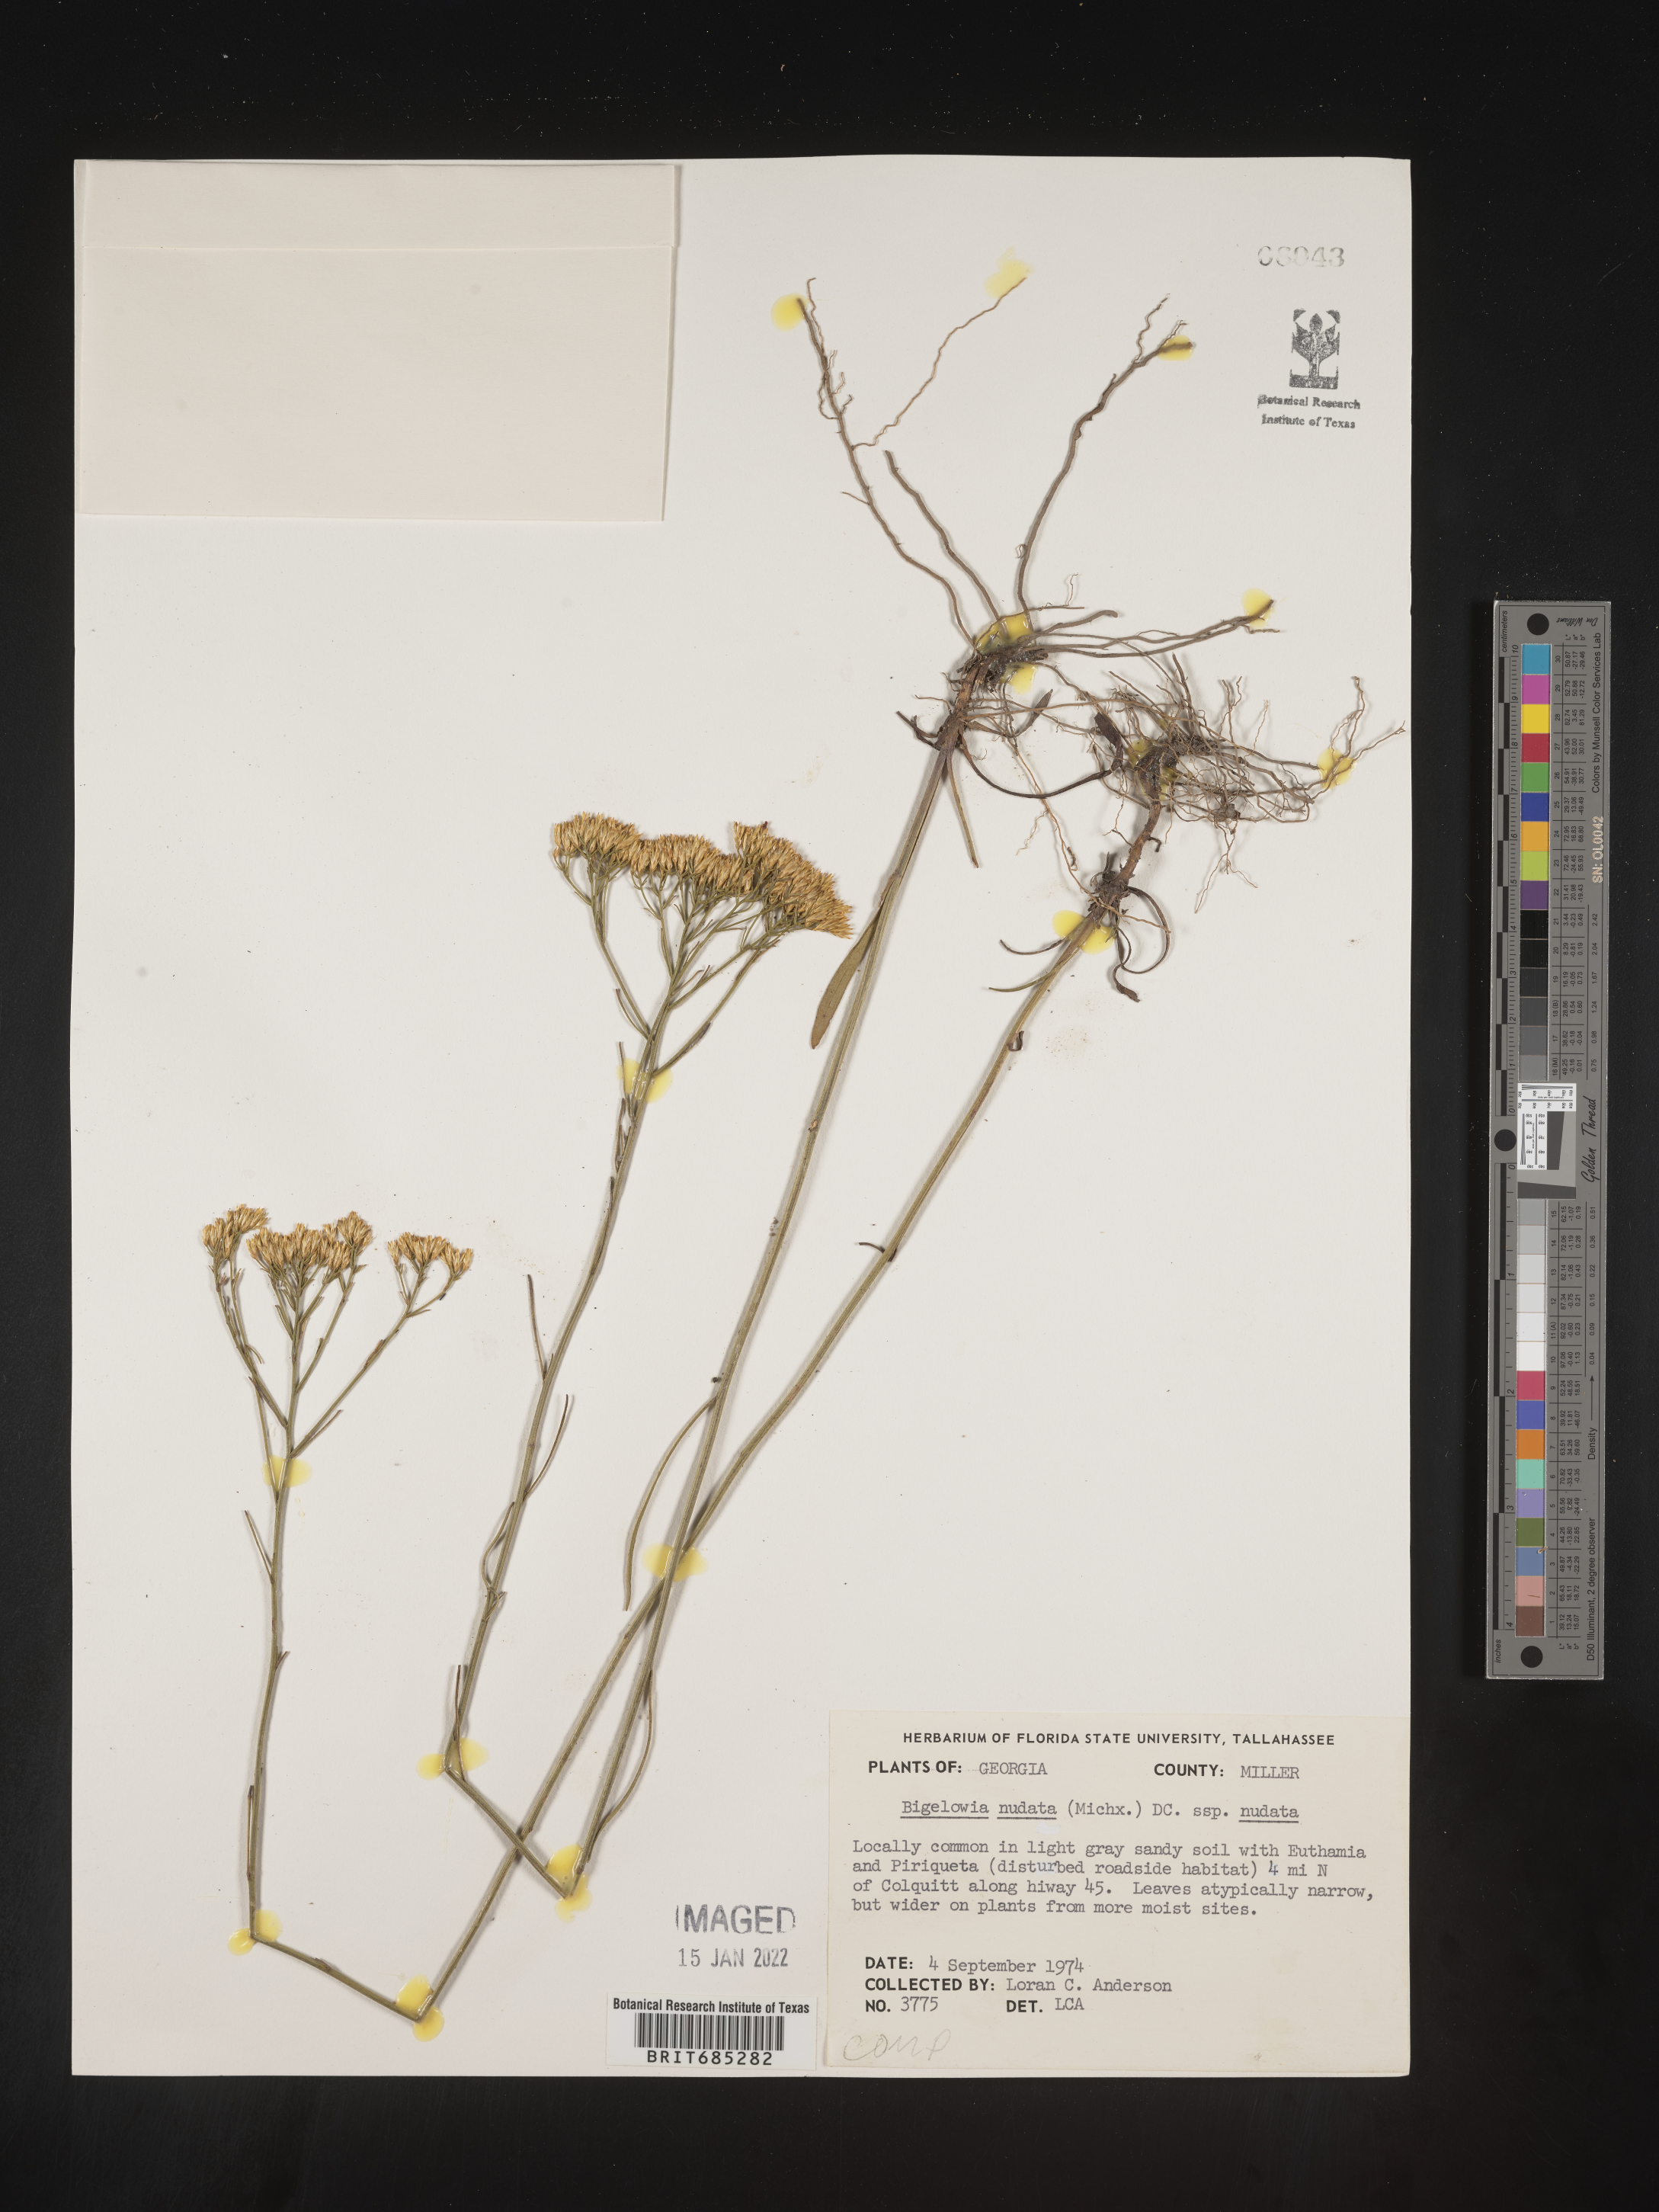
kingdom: Plantae
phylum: Tracheophyta
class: Magnoliopsida
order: Asterales
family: Asteraceae
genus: Bigelowia
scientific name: Bigelowia nudata
